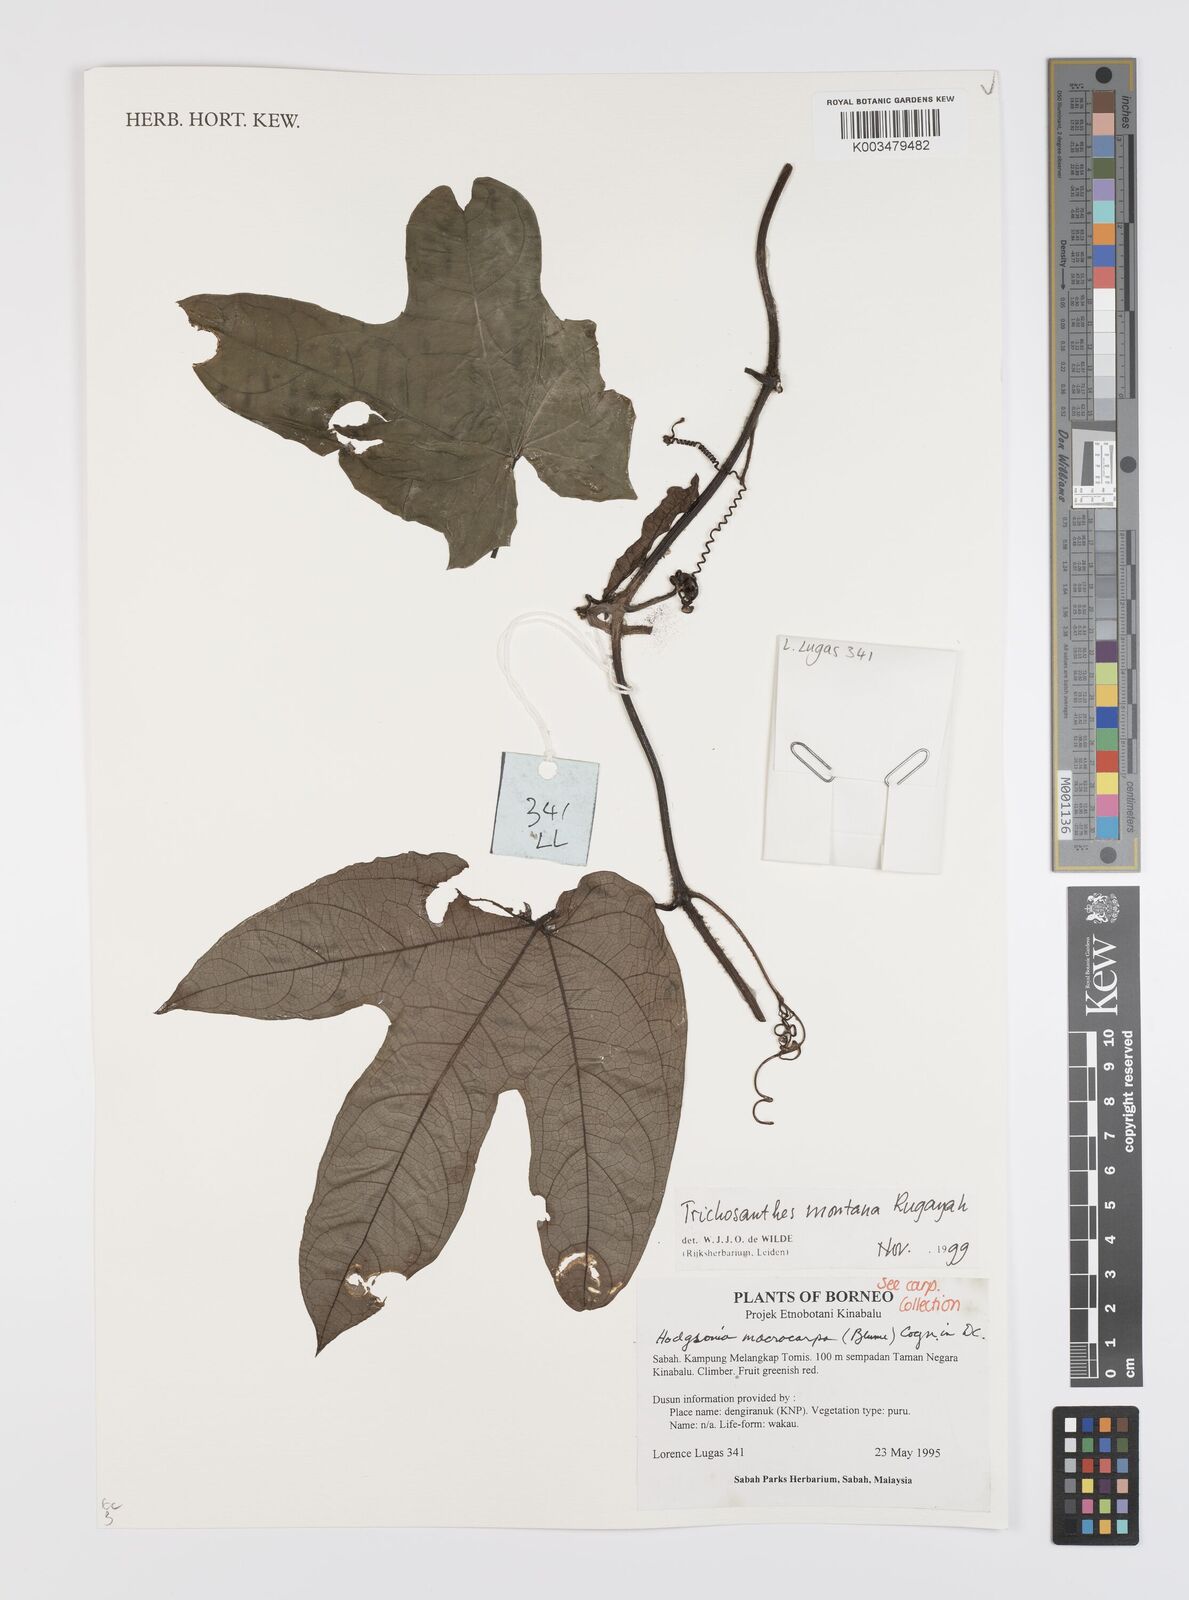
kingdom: Plantae
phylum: Tracheophyta
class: Magnoliopsida
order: Cucurbitales
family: Cucurbitaceae
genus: Trichosanthes
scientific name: Trichosanthes montana
